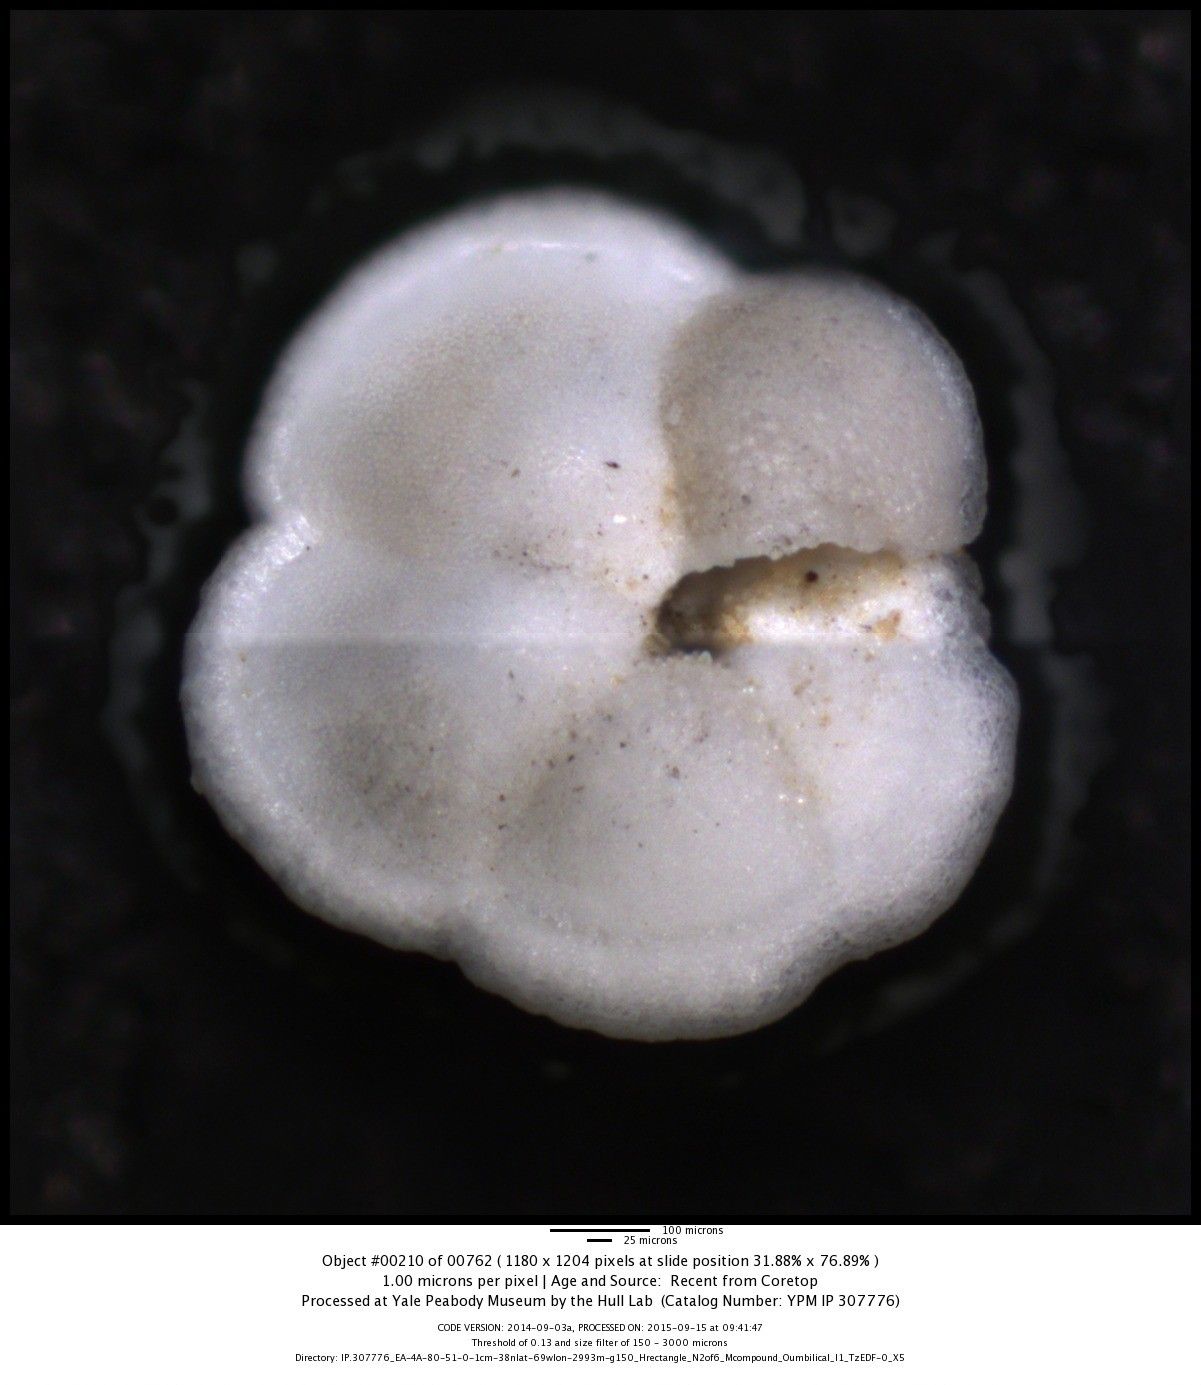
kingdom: Chromista
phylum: Foraminifera
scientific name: Foraminifera
